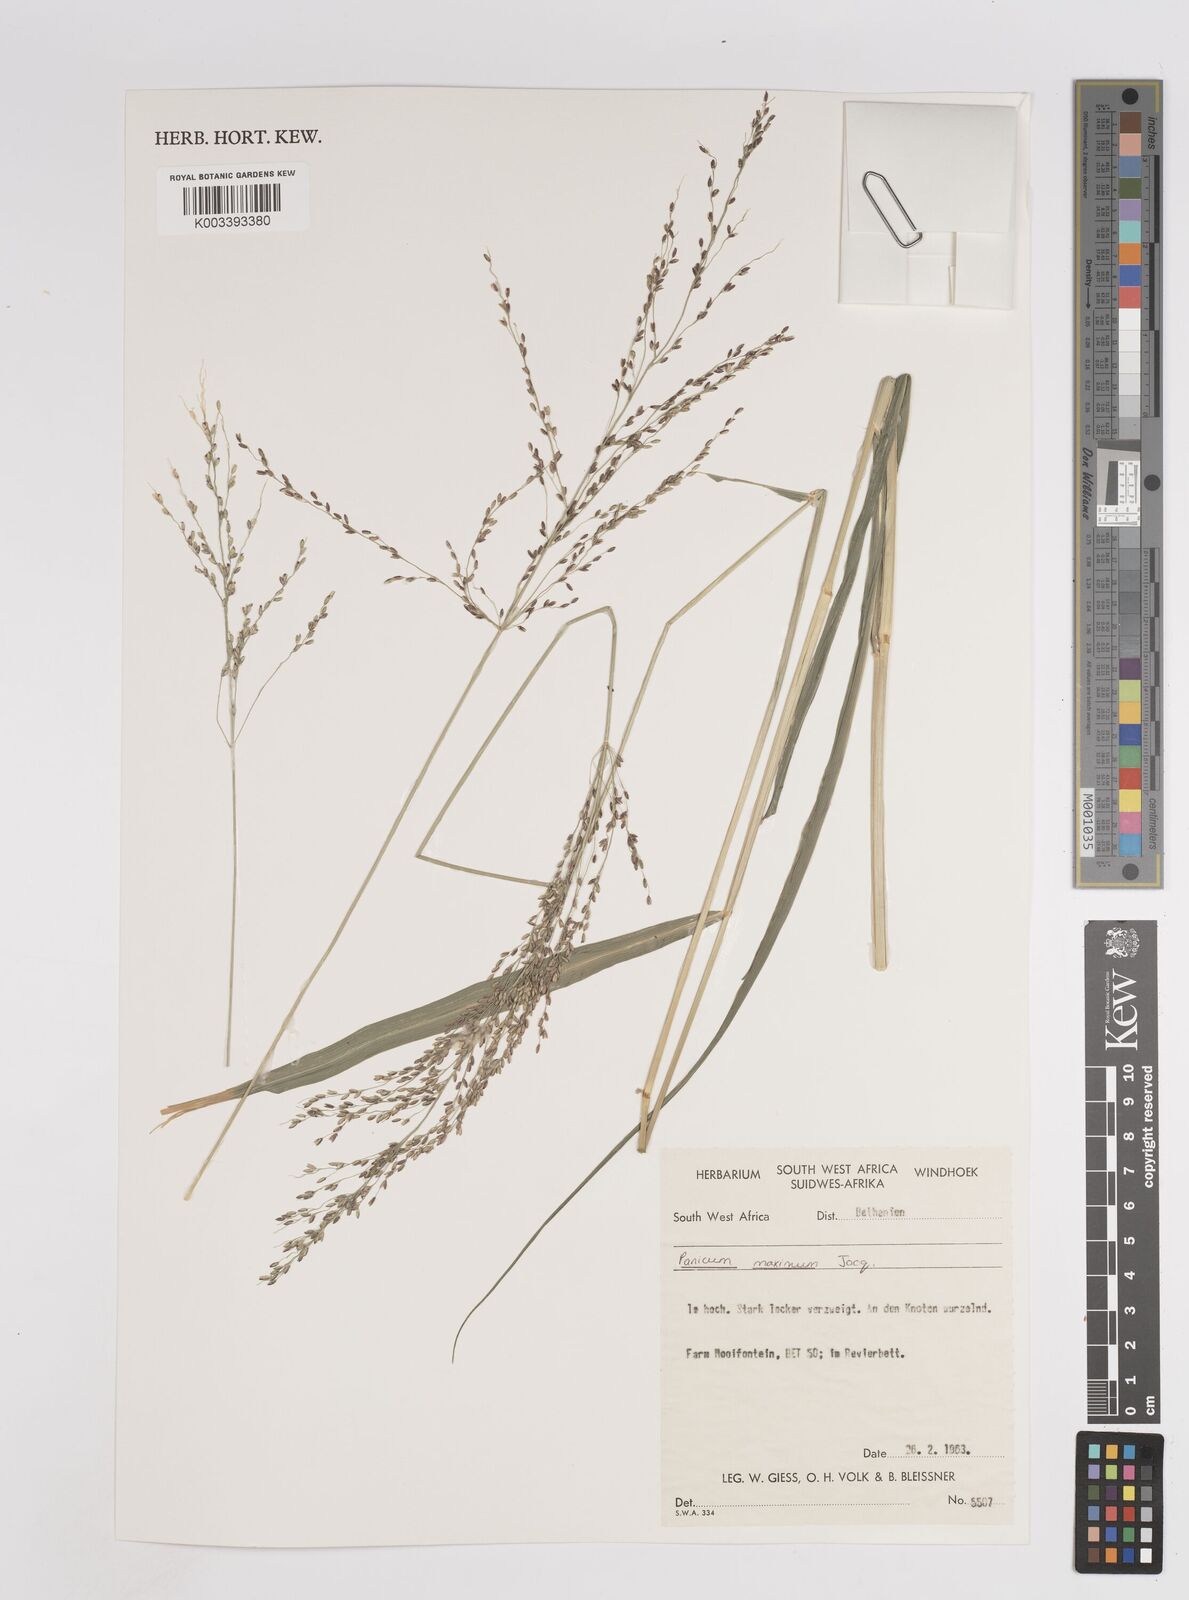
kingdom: Plantae
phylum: Tracheophyta
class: Liliopsida
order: Poales
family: Poaceae
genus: Megathyrsus
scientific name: Megathyrsus maximus
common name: Guineagrass
